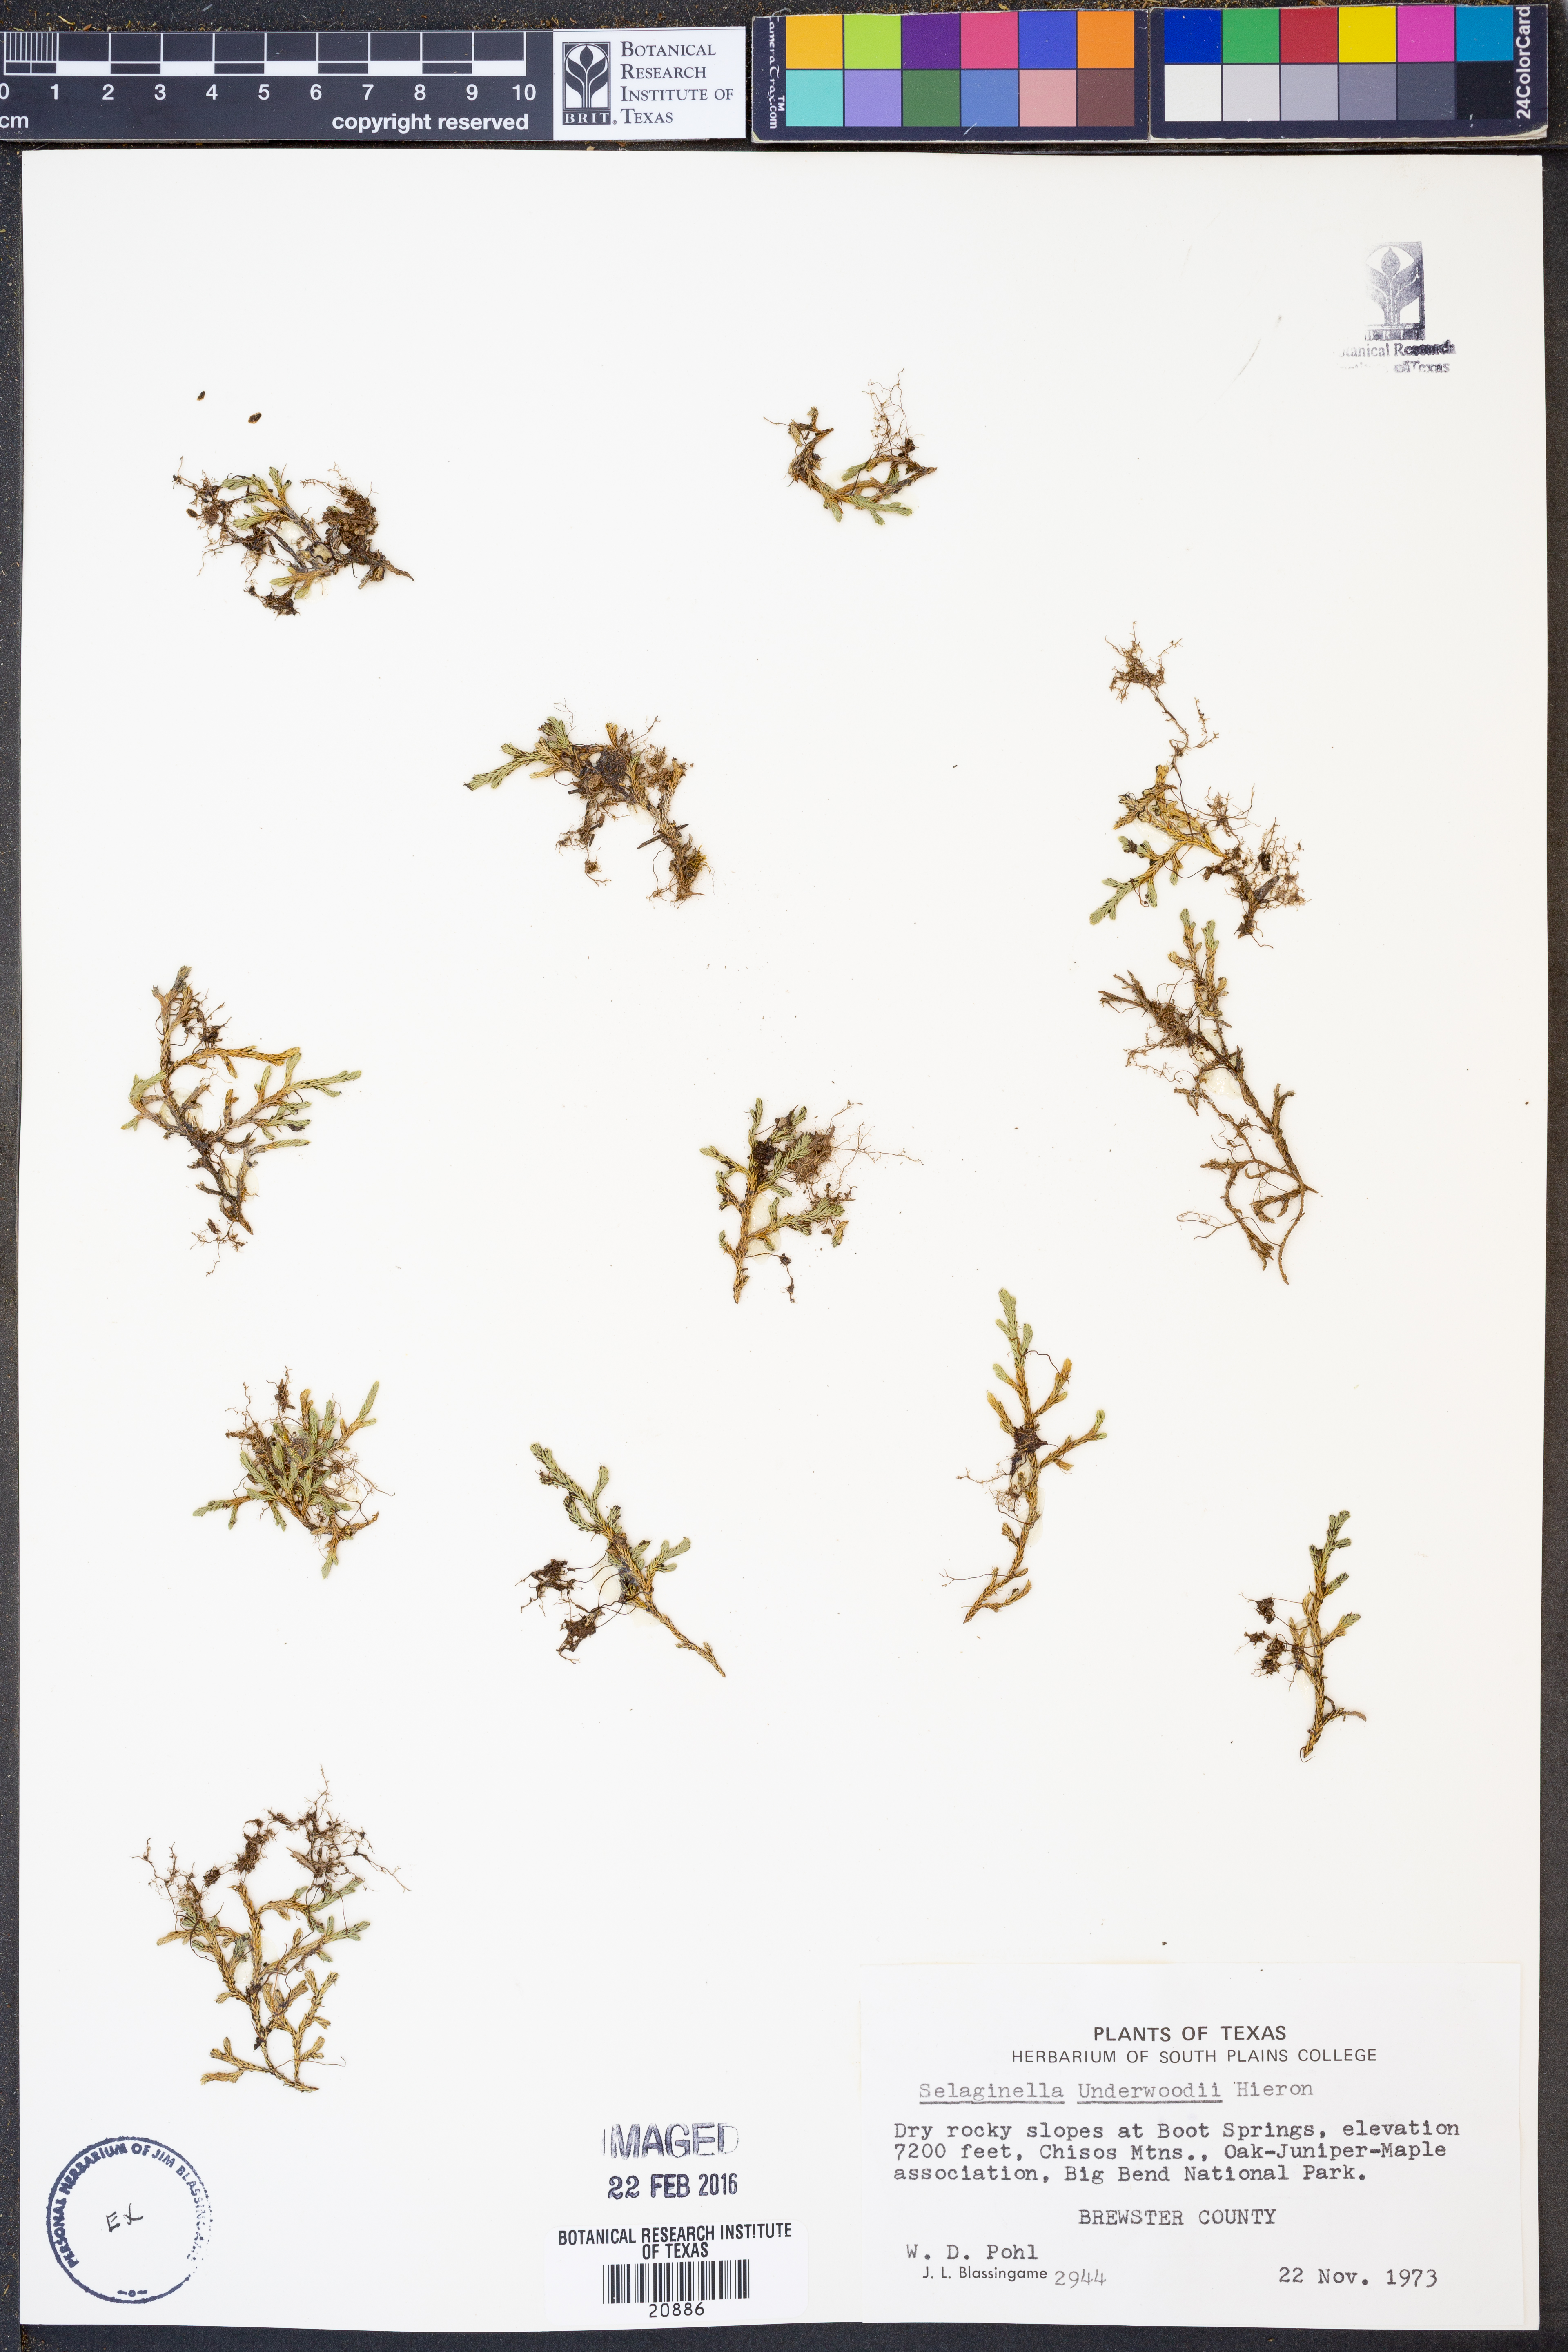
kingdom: Plantae
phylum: Tracheophyta
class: Lycopodiopsida
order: Selaginellales
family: Selaginellaceae
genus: Selaginella
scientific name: Selaginella underwoodii
